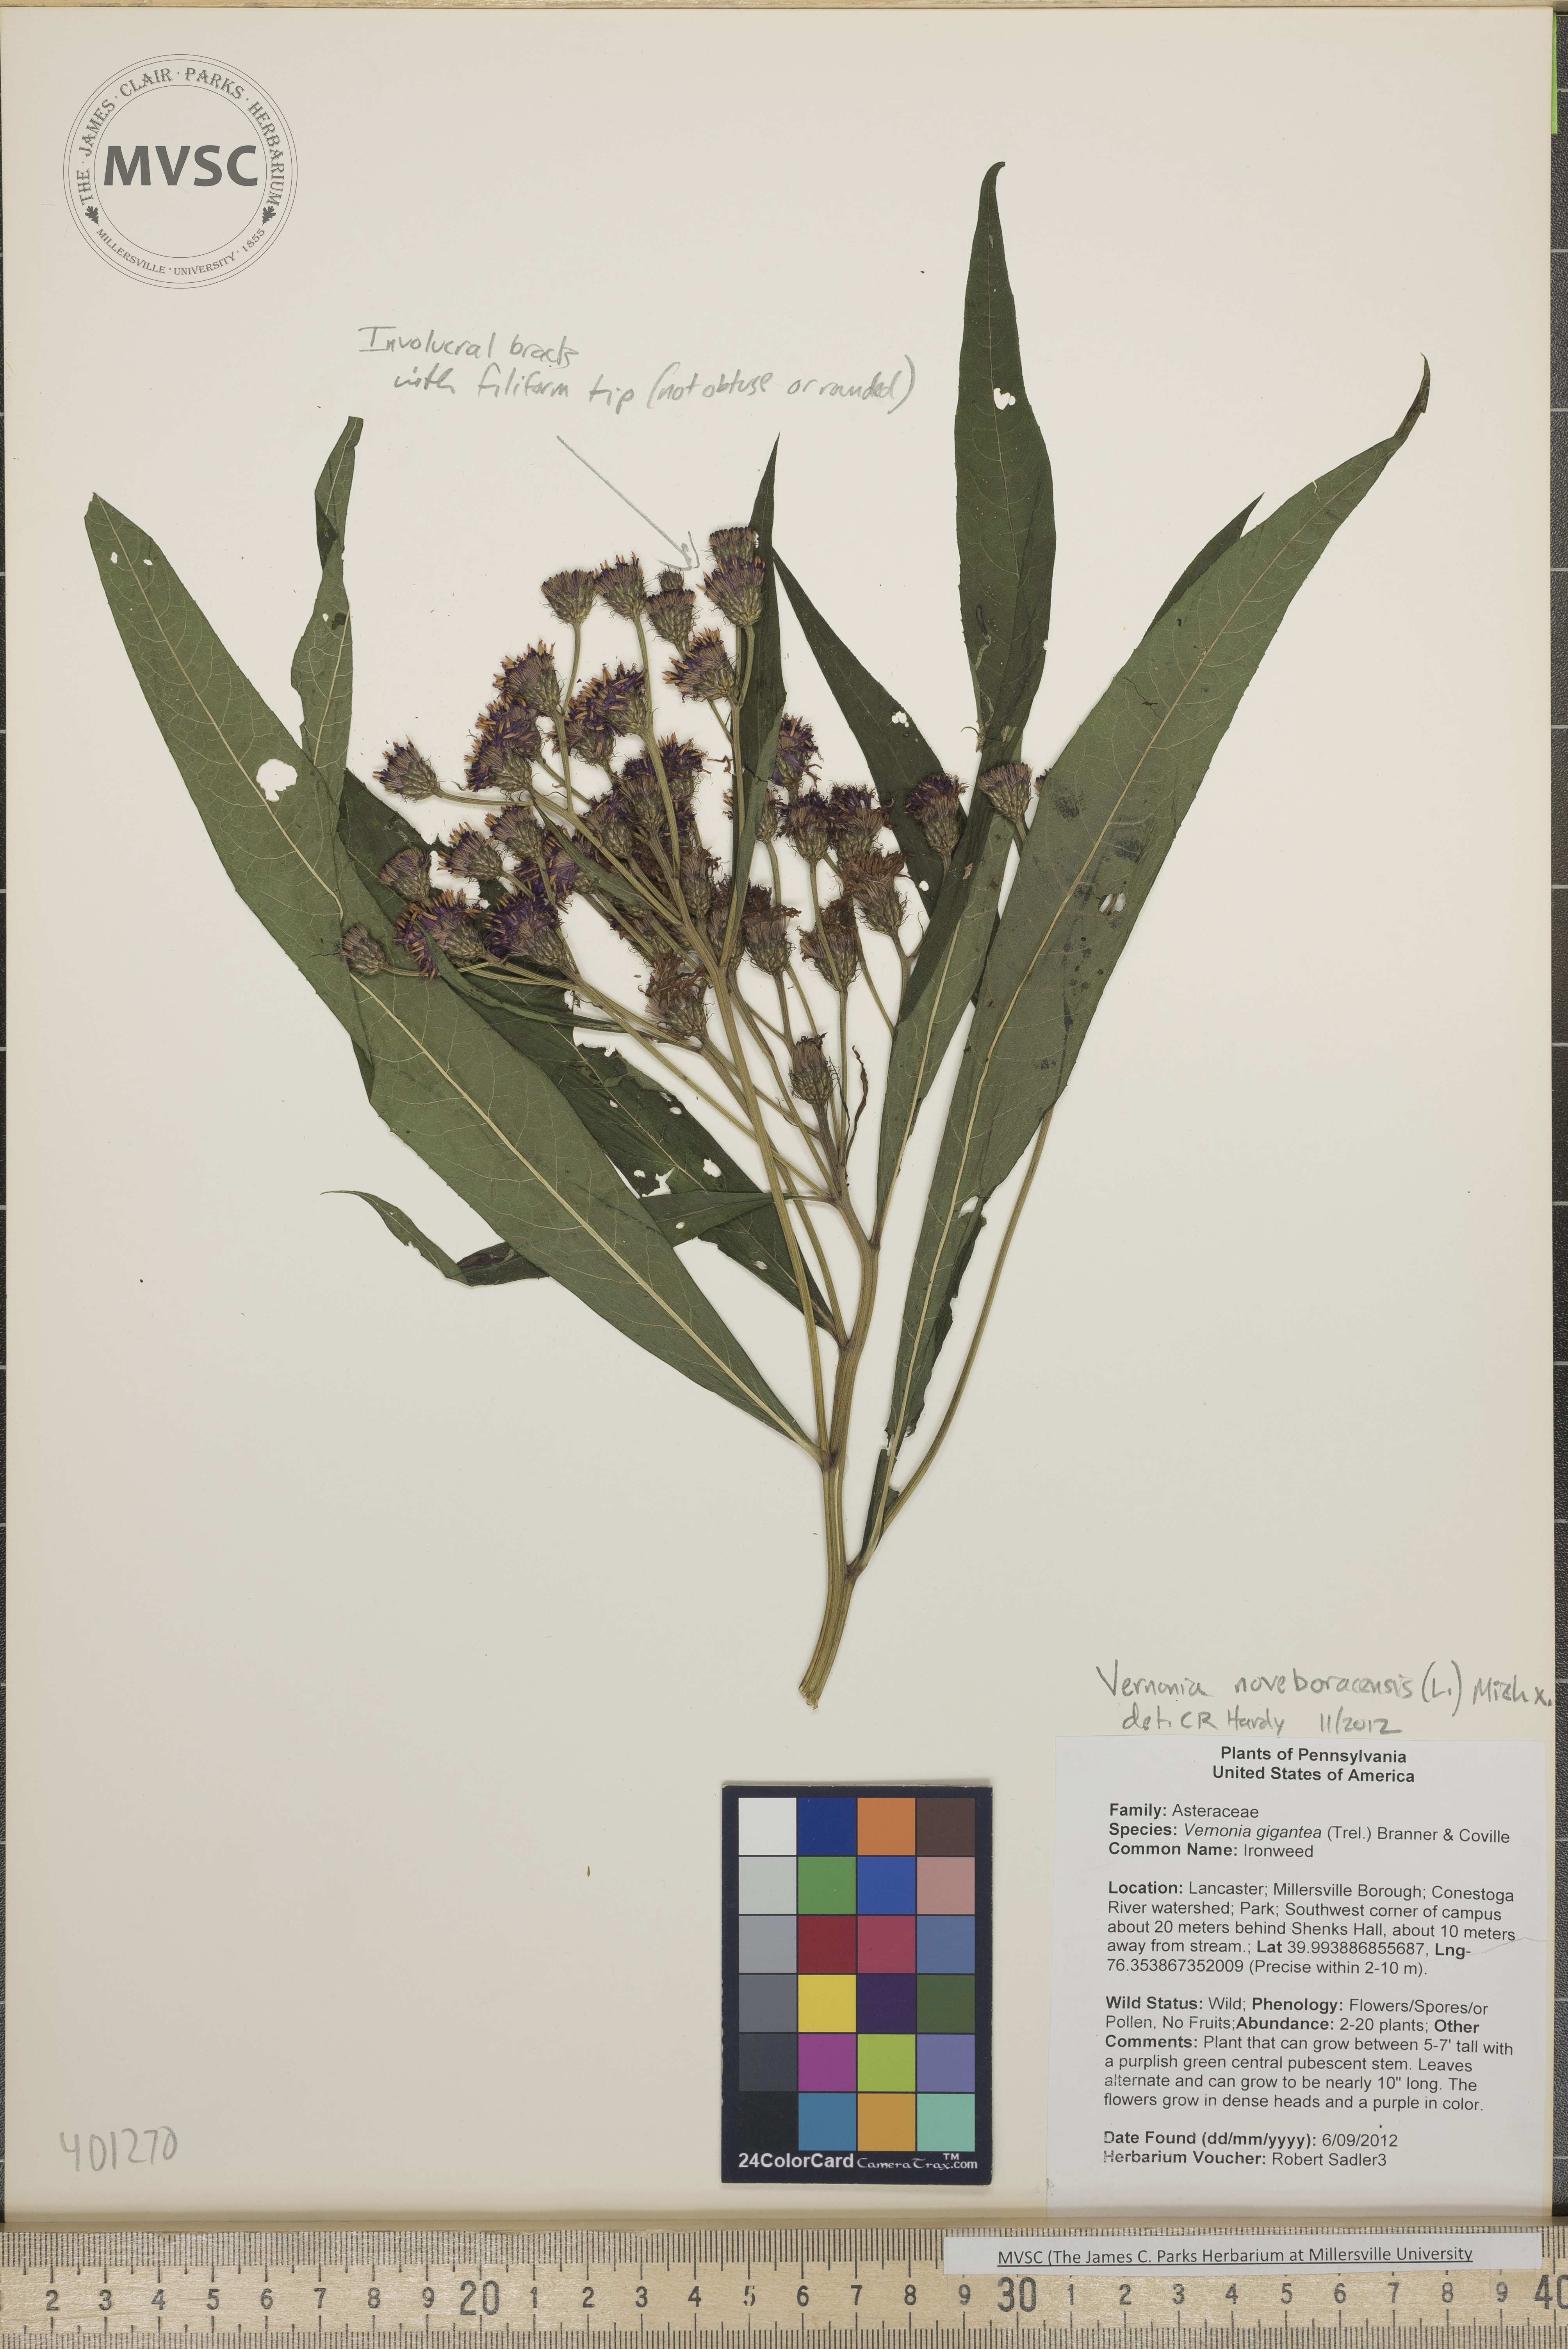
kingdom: Plantae
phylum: Tracheophyta
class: Magnoliopsida
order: Asterales
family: Asteraceae
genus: Vernonia
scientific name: Vernonia noveboracensis
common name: New York Ironweed
